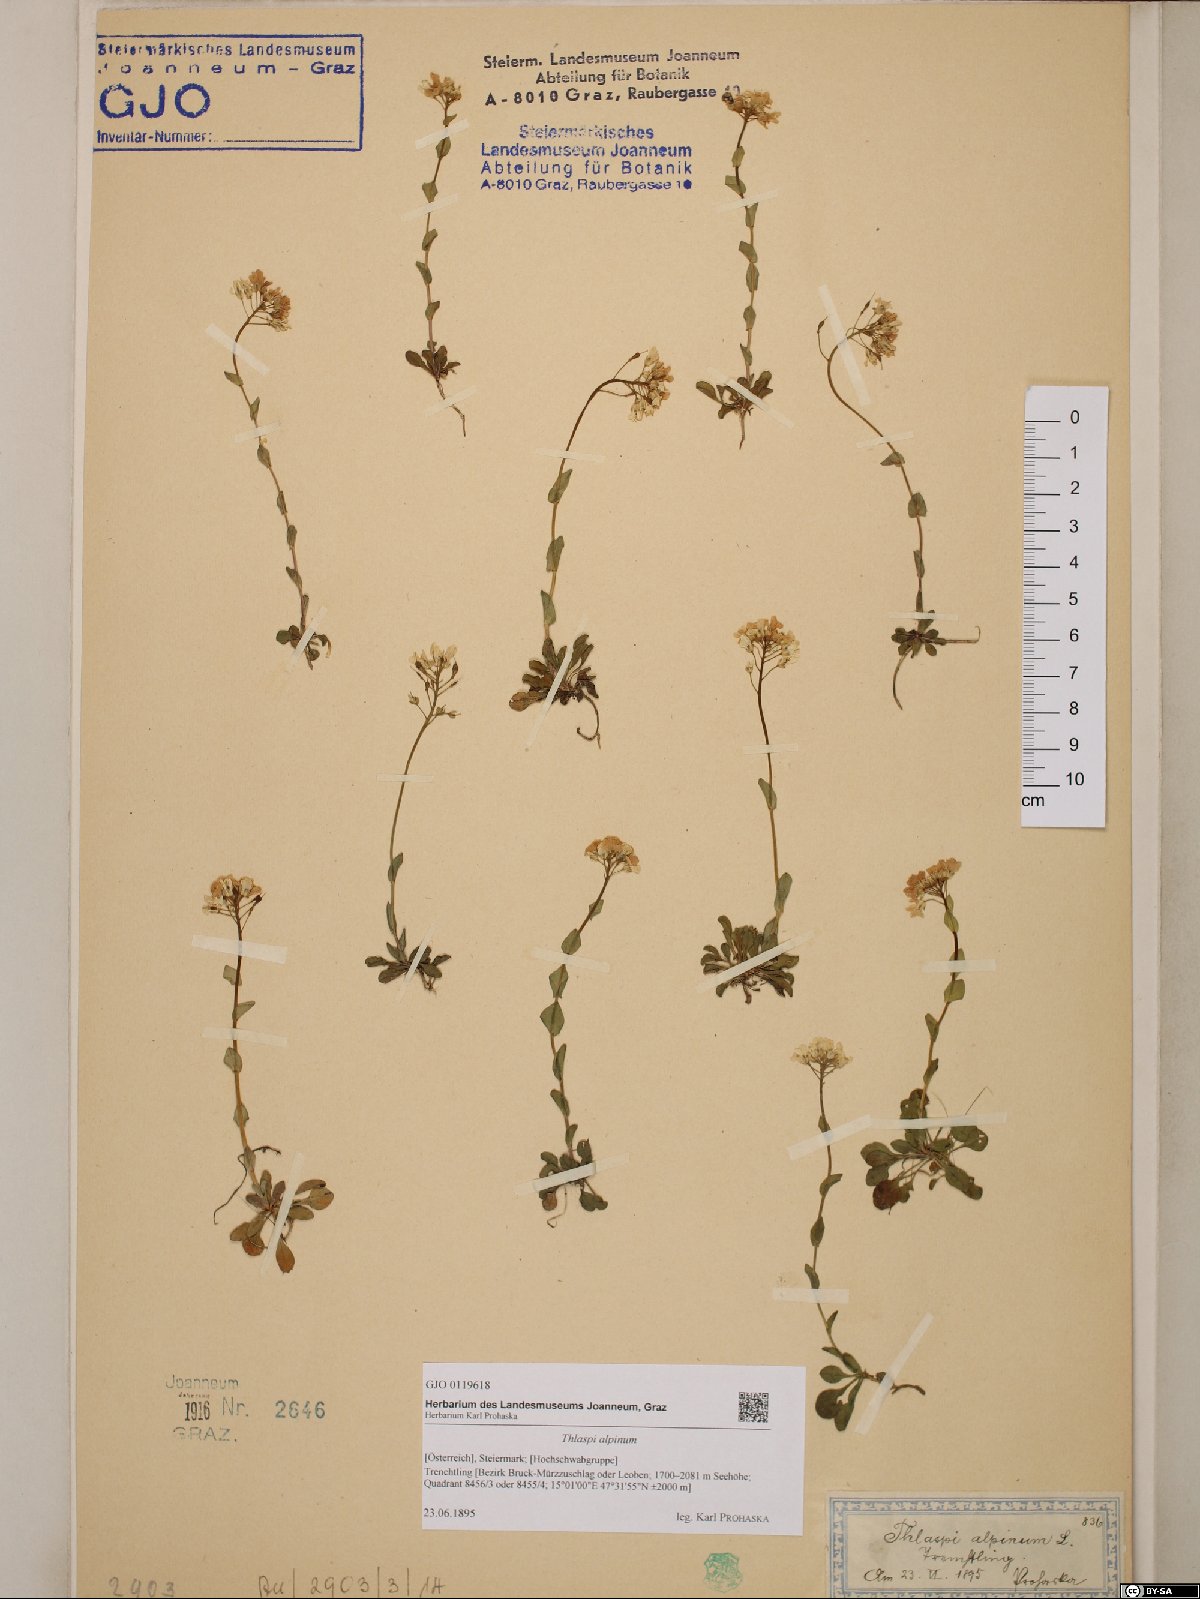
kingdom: Plantae
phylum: Tracheophyta
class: Magnoliopsida
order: Brassicales
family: Brassicaceae
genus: Noccaea
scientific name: Noccaea alpestris
